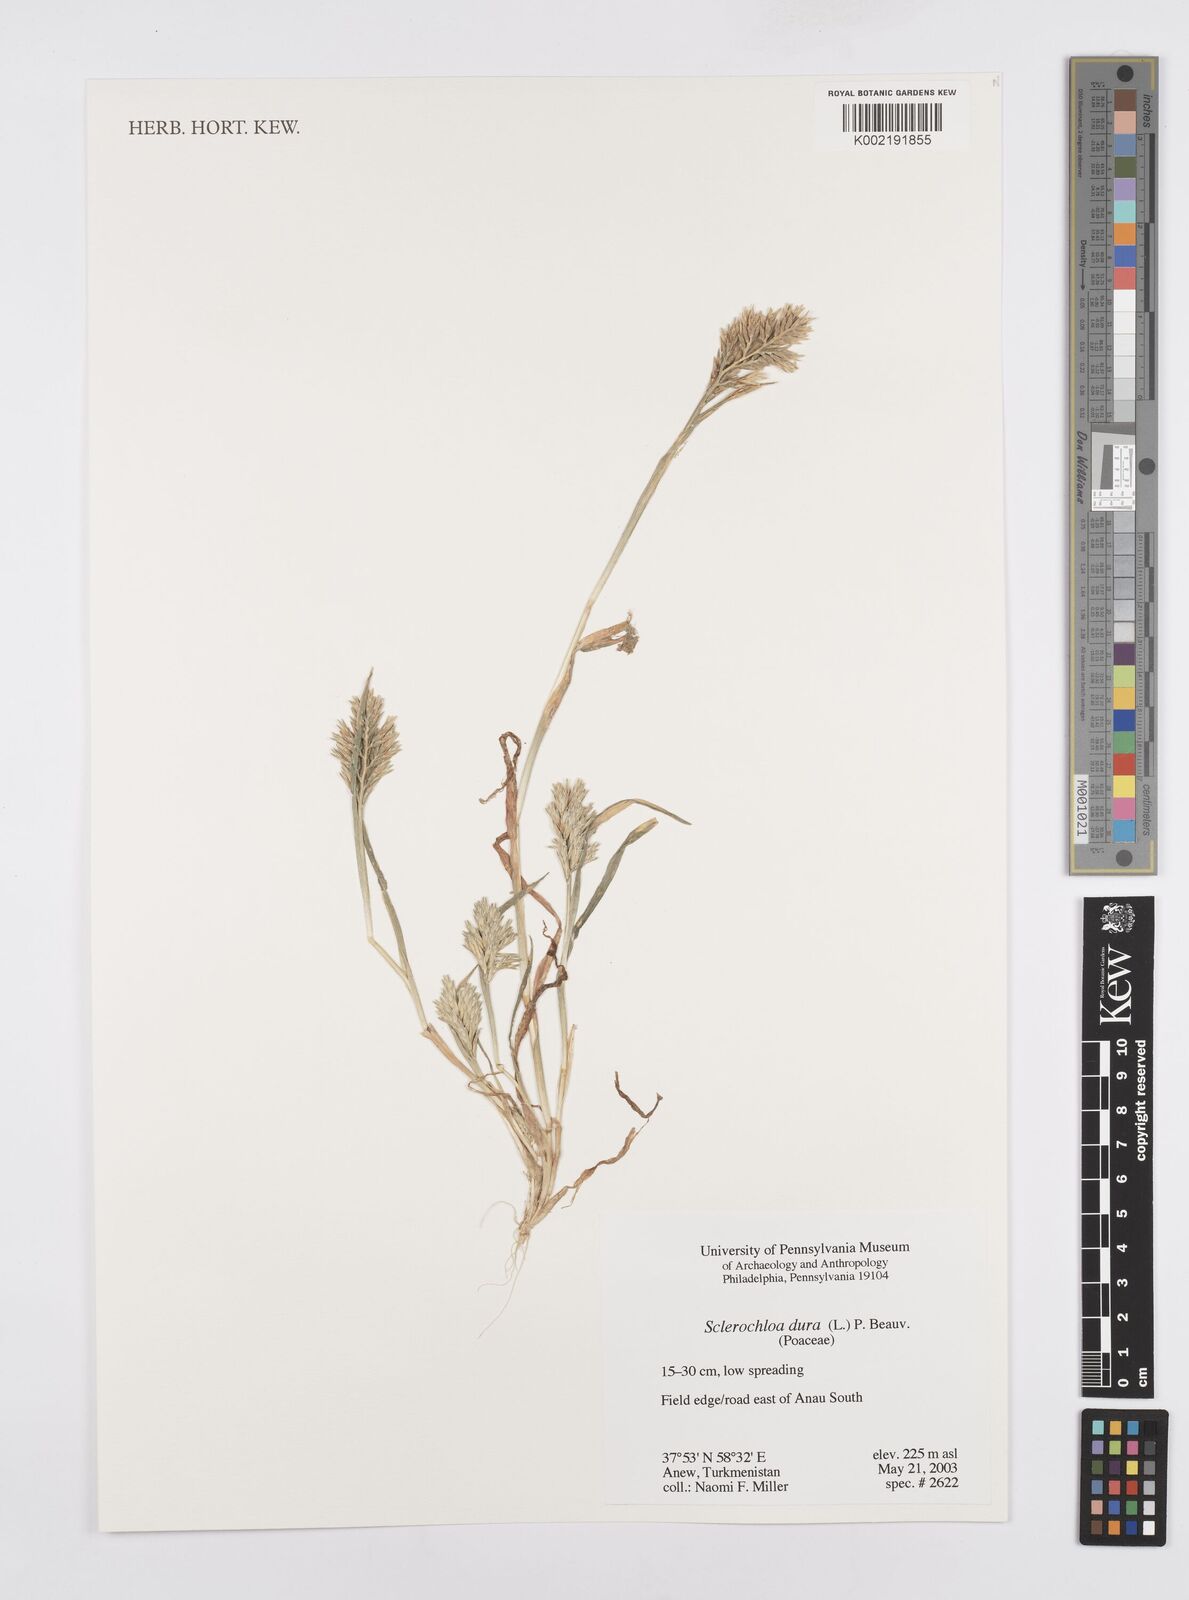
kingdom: Plantae
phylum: Tracheophyta
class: Liliopsida
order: Poales
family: Poaceae
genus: Sclerochloa
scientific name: Sclerochloa dura
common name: Common hardgrass
